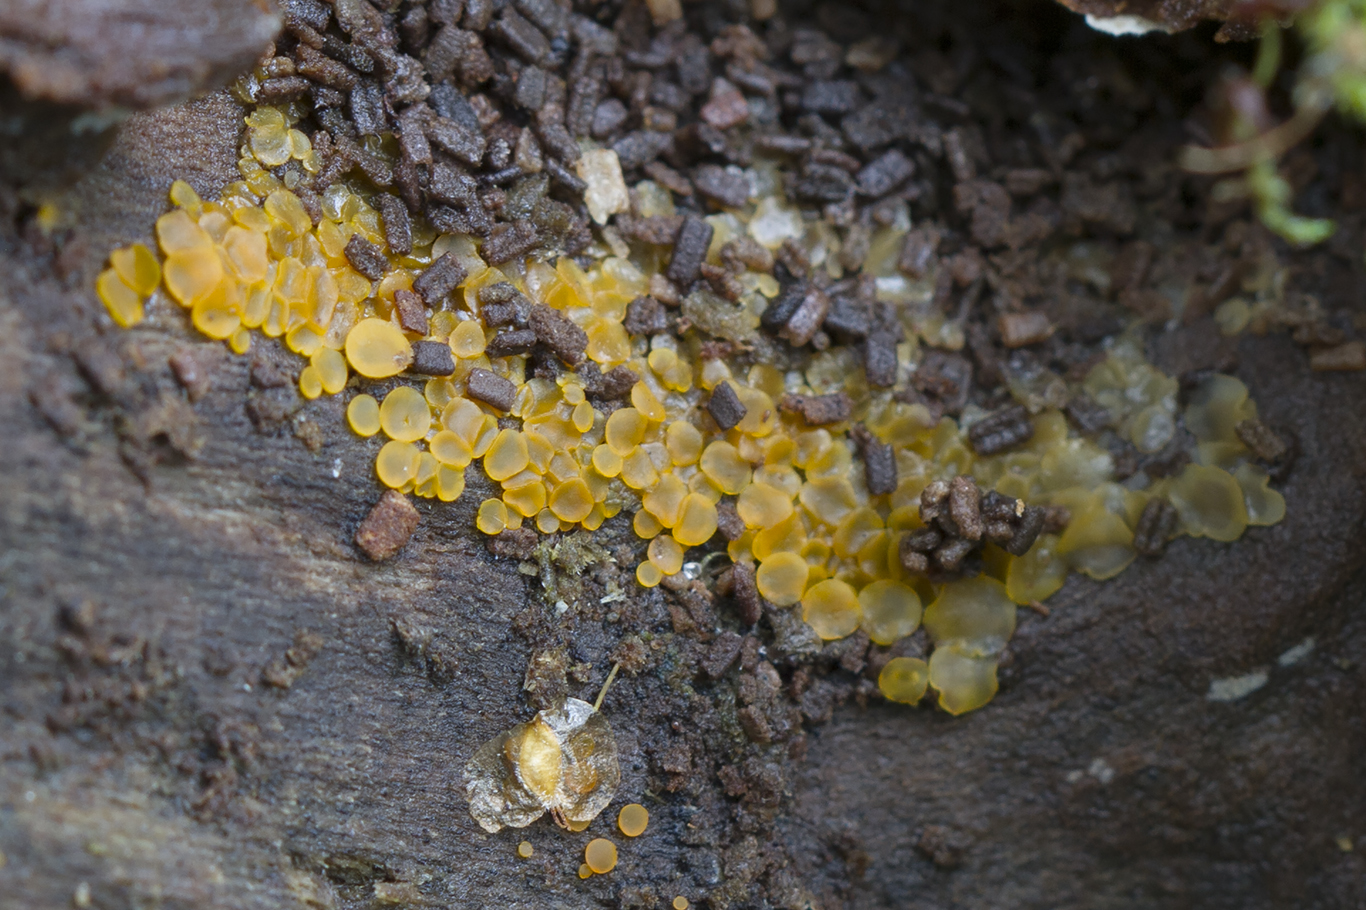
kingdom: Fungi
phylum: Ascomycota
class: Orbiliomycetes
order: Orbiliales
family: Orbiliaceae
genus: Orbilia
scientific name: Orbilia xanthostigma
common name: krumsporet voksskive
